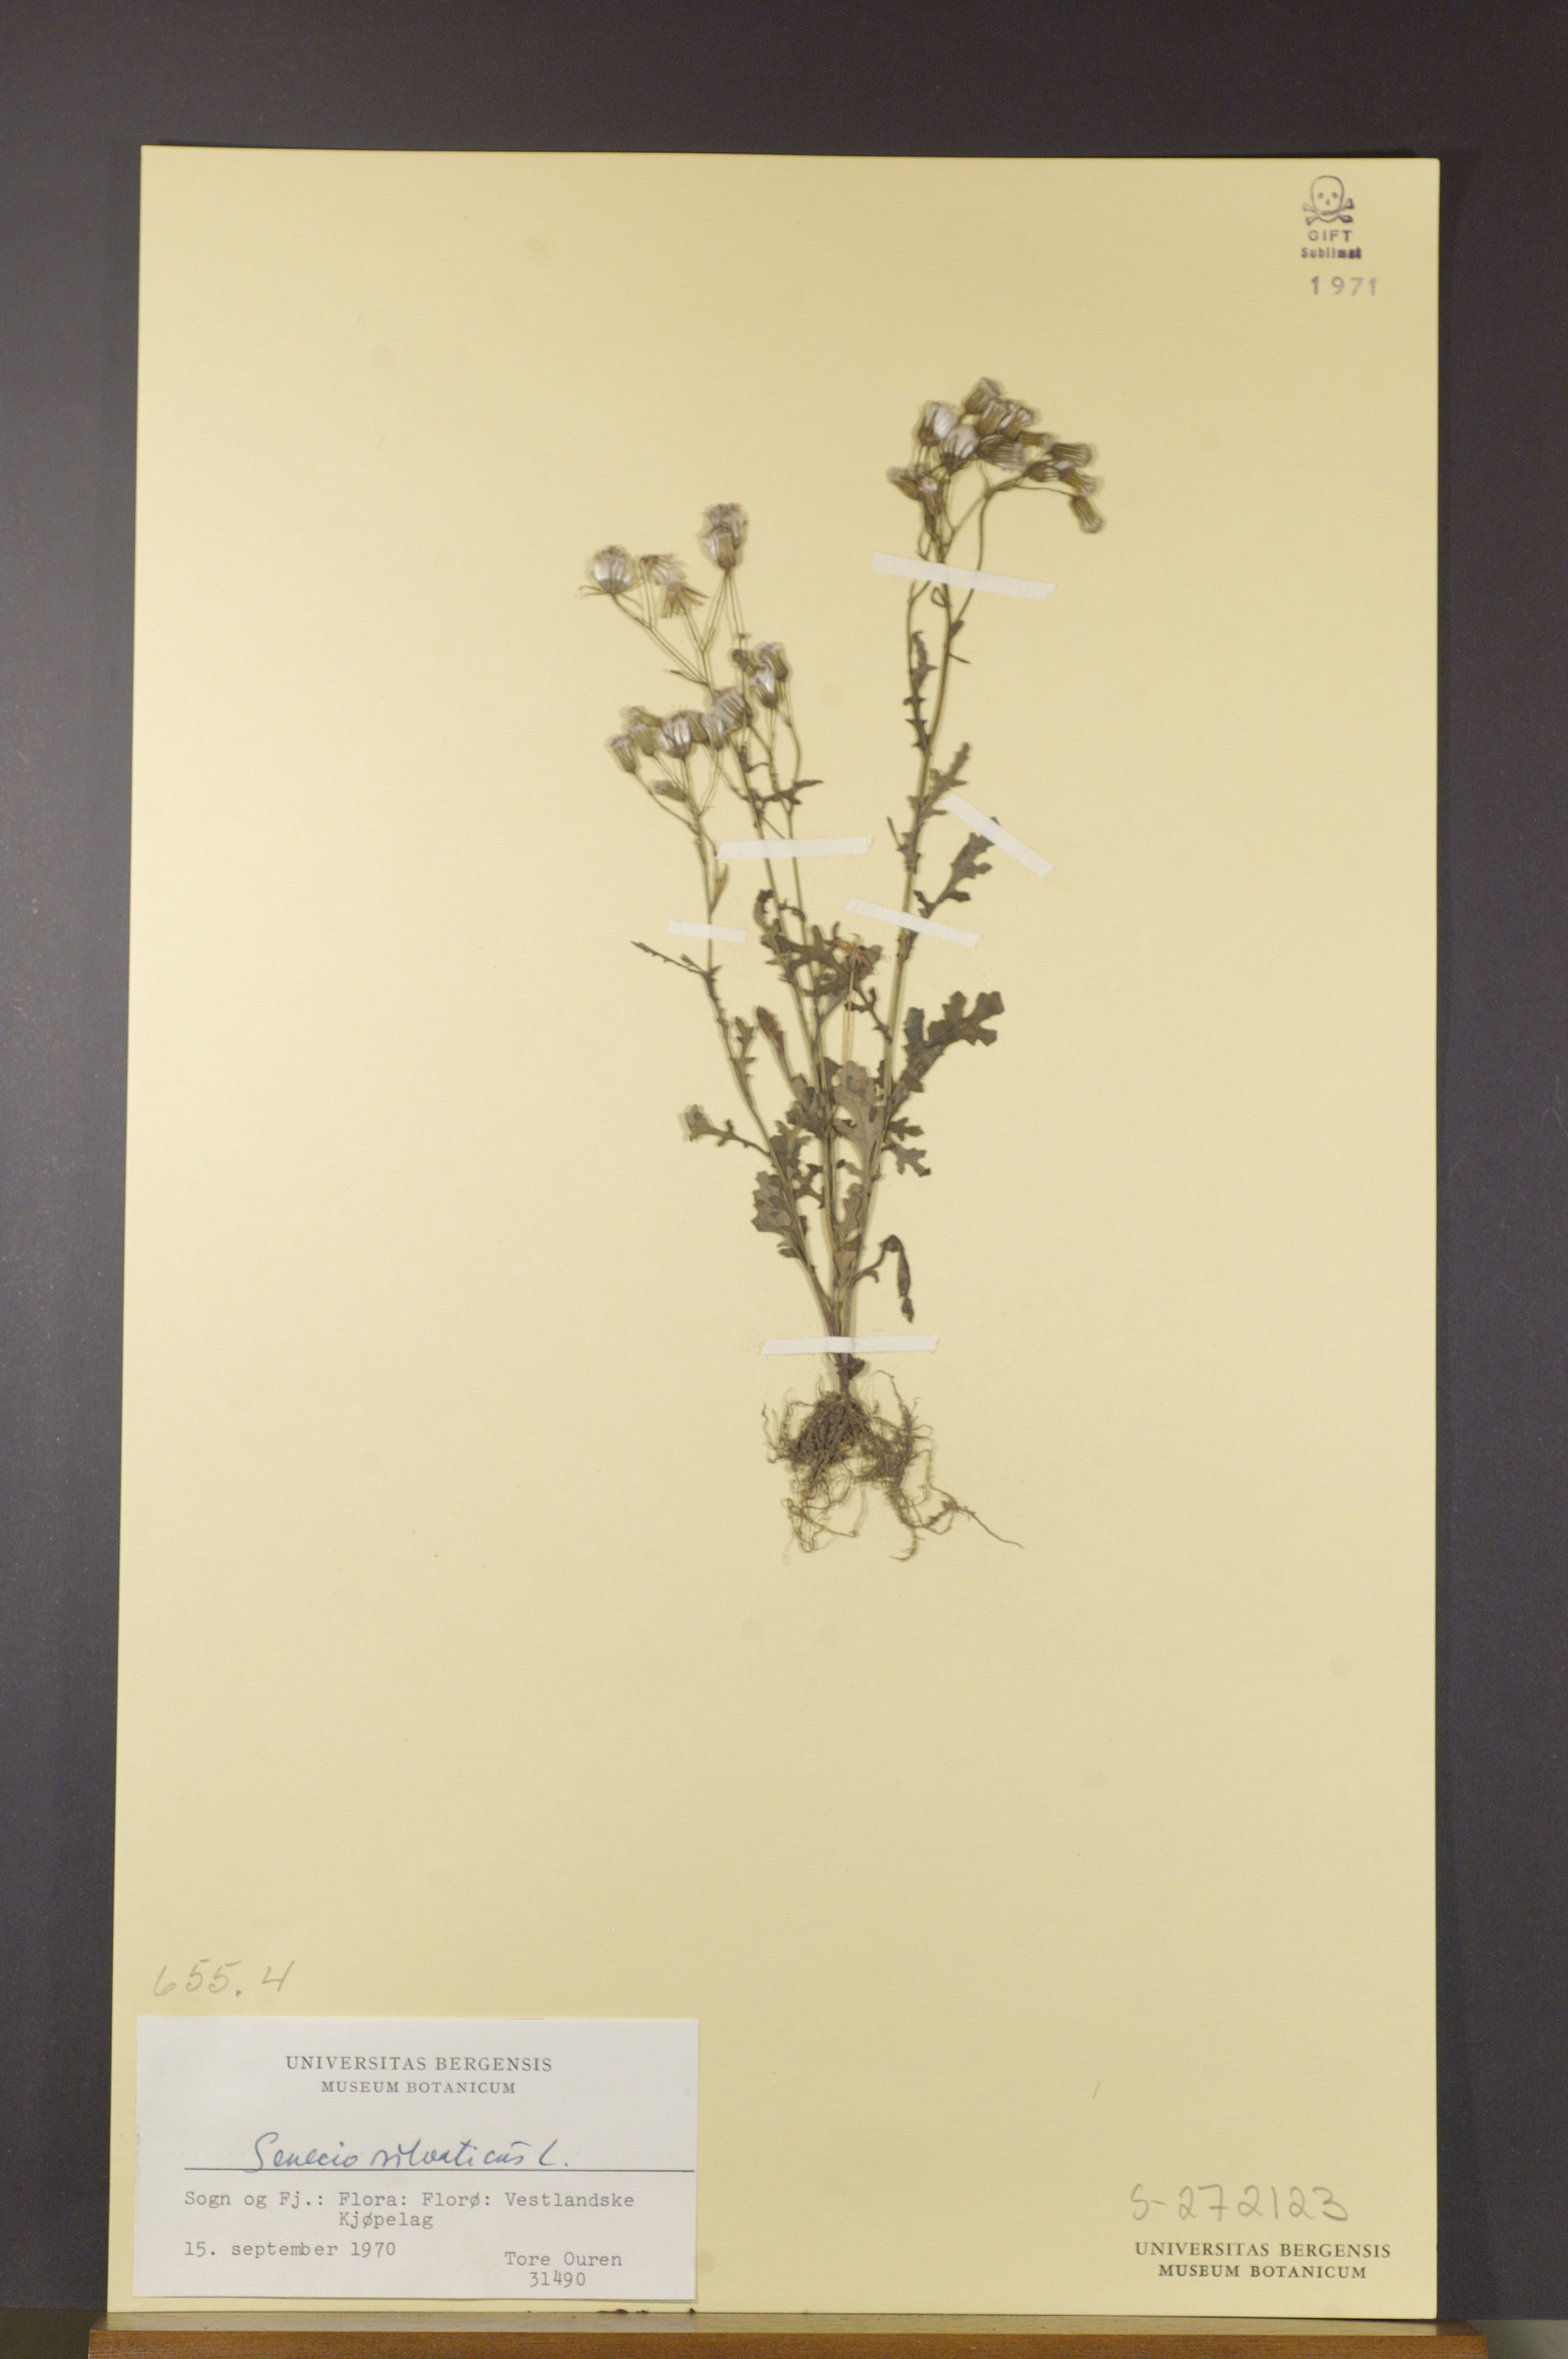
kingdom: Plantae
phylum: Tracheophyta
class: Magnoliopsida
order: Asterales
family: Asteraceae
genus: Senecio
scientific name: Senecio sylvaticus
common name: Woodland ragwort
